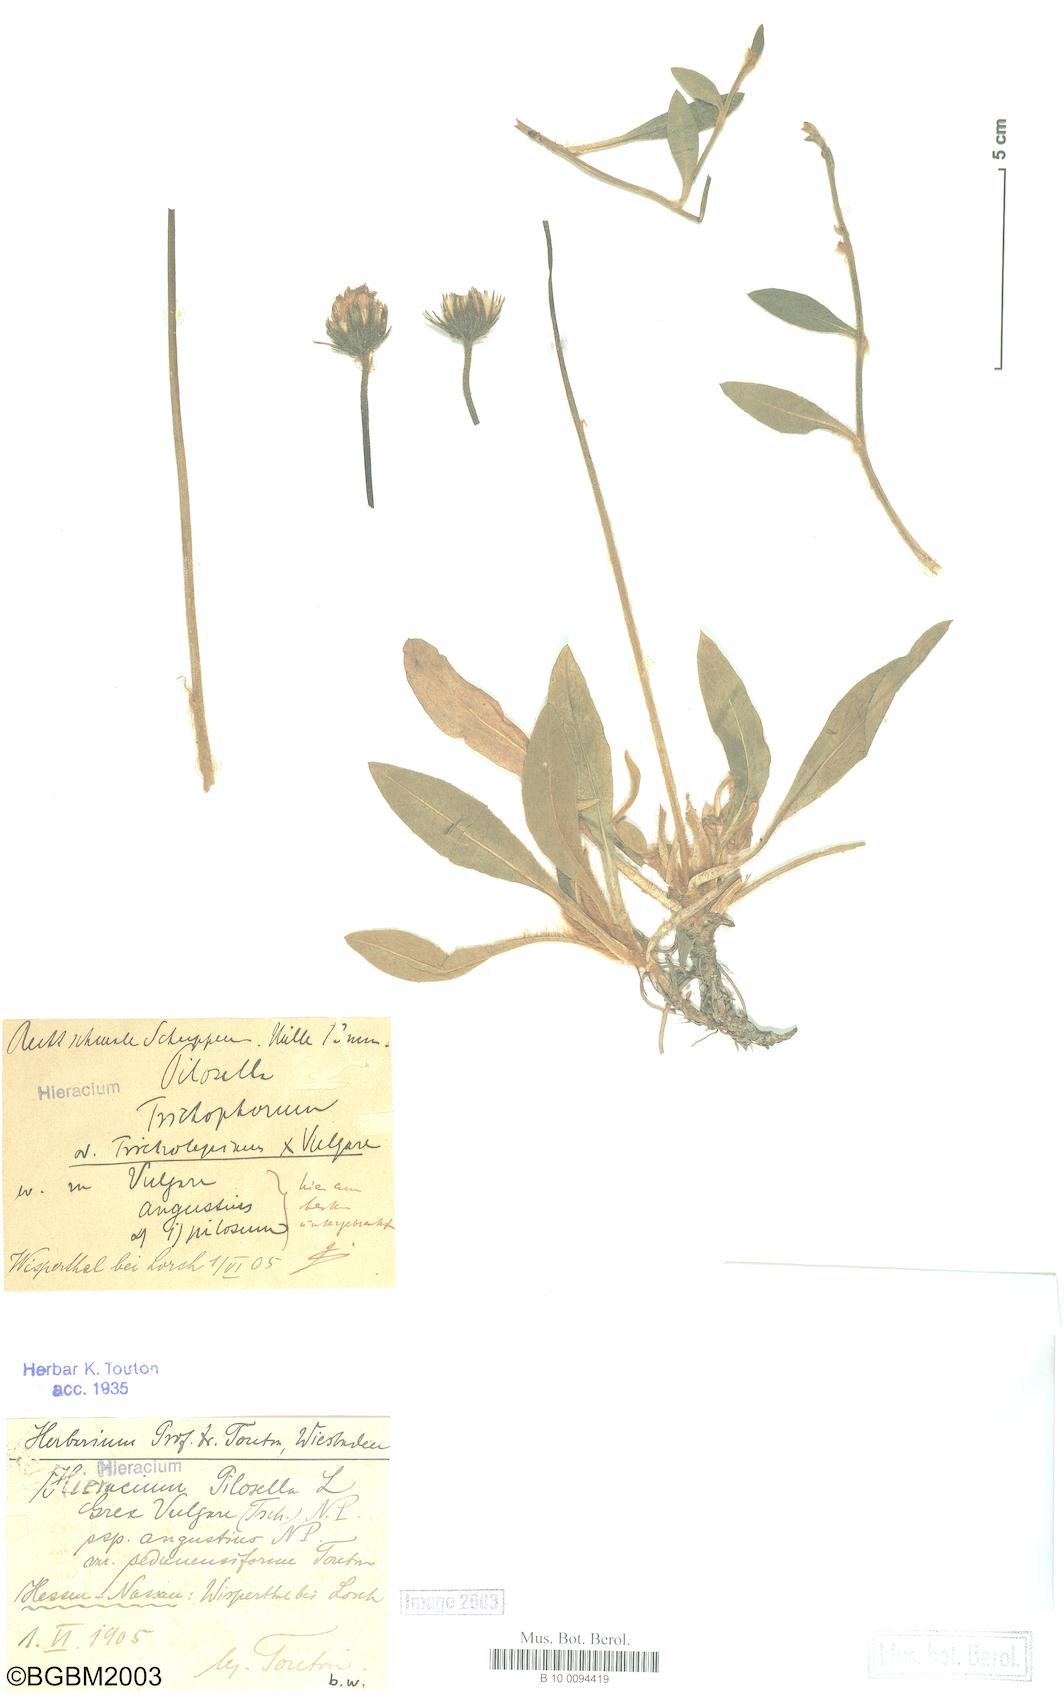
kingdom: Plantae
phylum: Tracheophyta
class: Magnoliopsida
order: Asterales
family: Asteraceae
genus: Pilosella
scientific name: Pilosella officinarum
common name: Mouse-ear hawkweed
